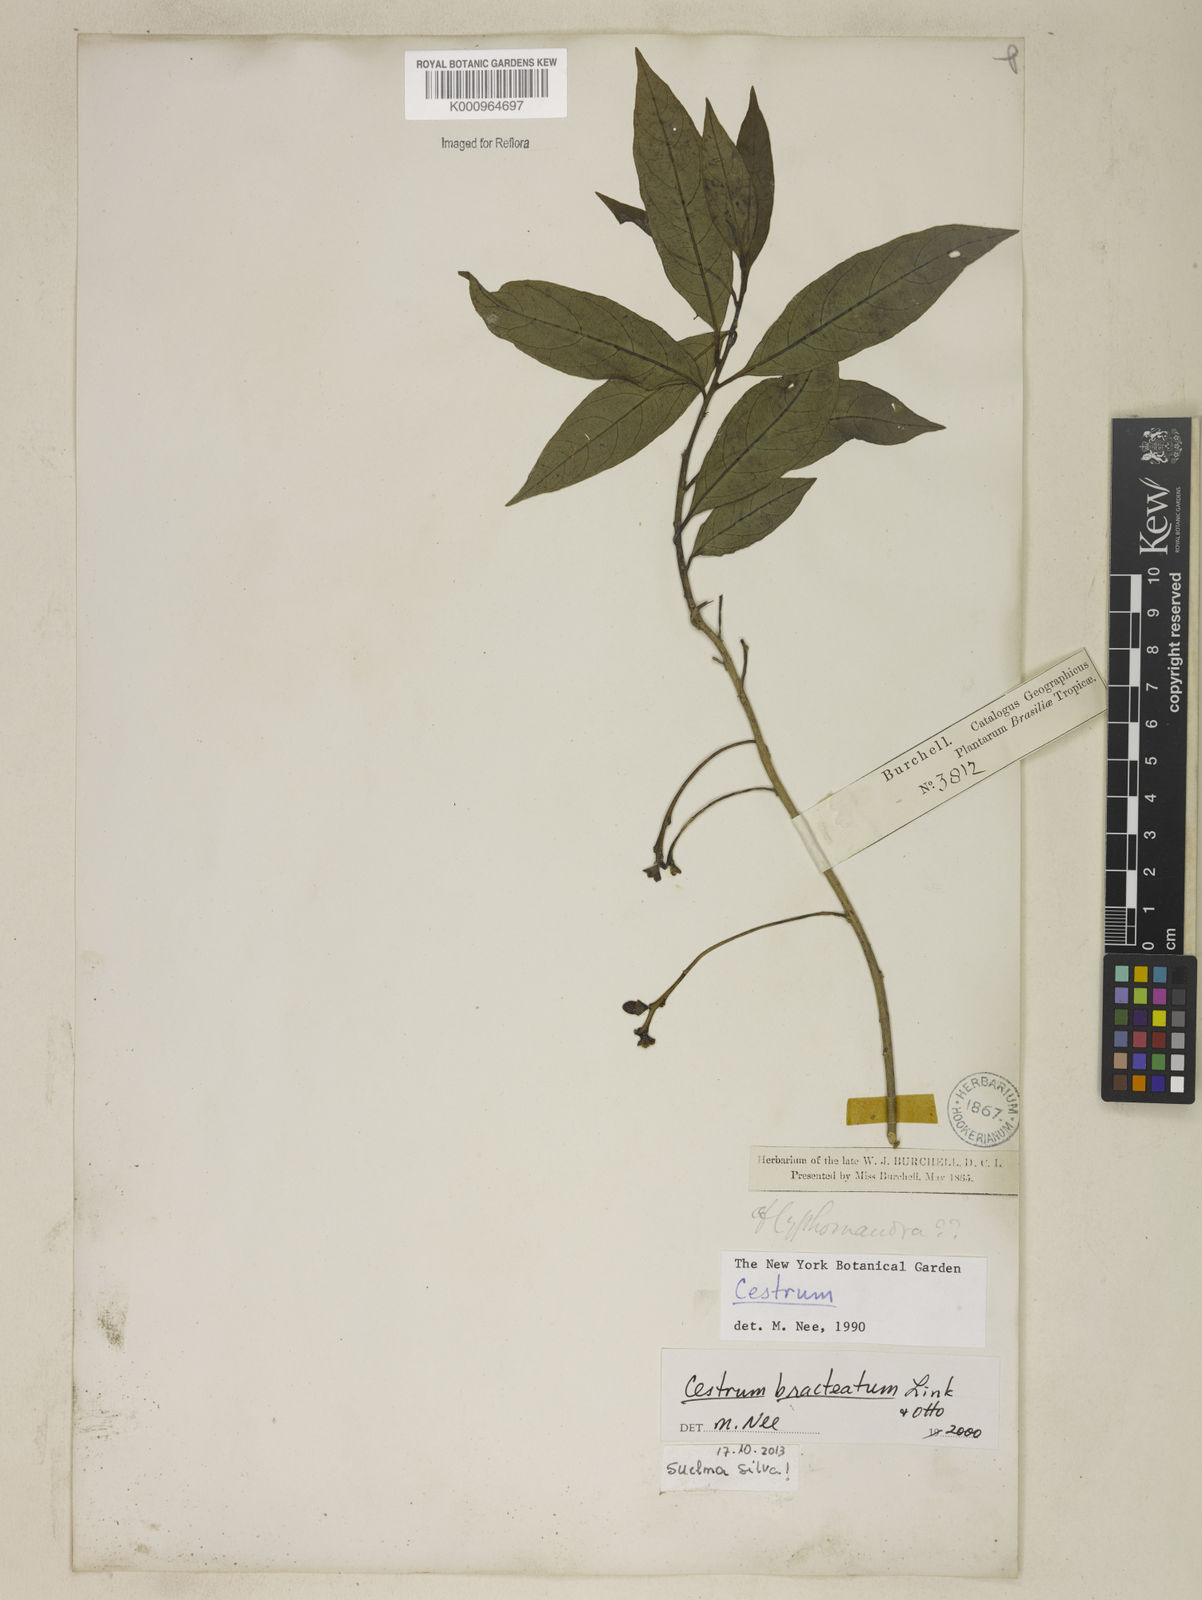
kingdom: Plantae
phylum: Tracheophyta
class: Magnoliopsida
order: Solanales
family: Solanaceae
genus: Cestrum
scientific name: Cestrum bracteatum
